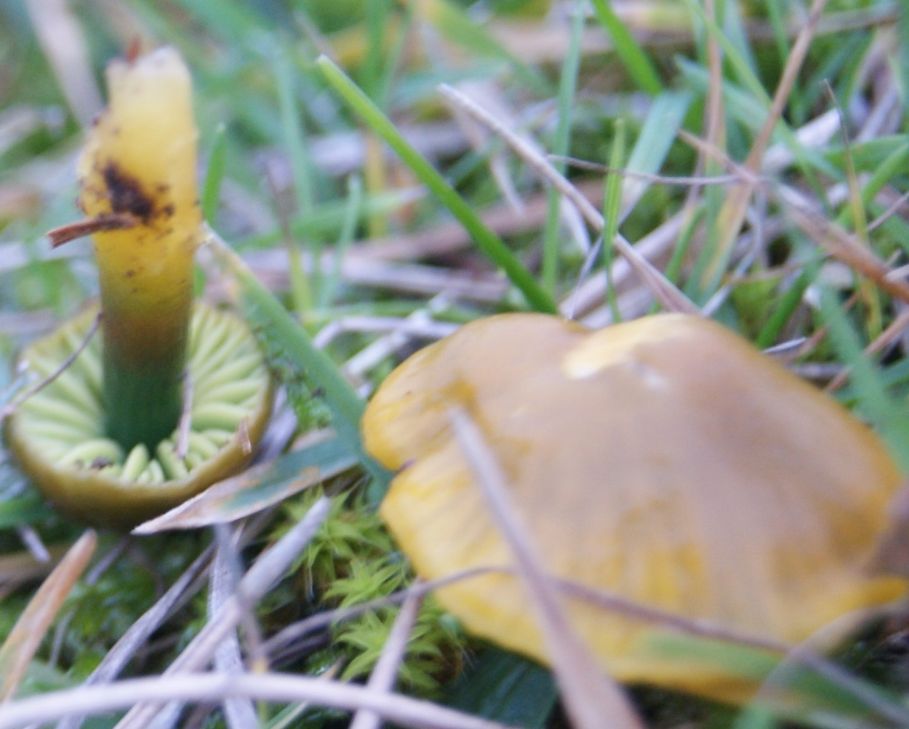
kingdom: Fungi
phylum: Basidiomycota
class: Agaricomycetes
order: Agaricales
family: Hygrophoraceae
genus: Gliophorus
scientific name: Gliophorus psittacinus
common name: papegøje-vokshat
